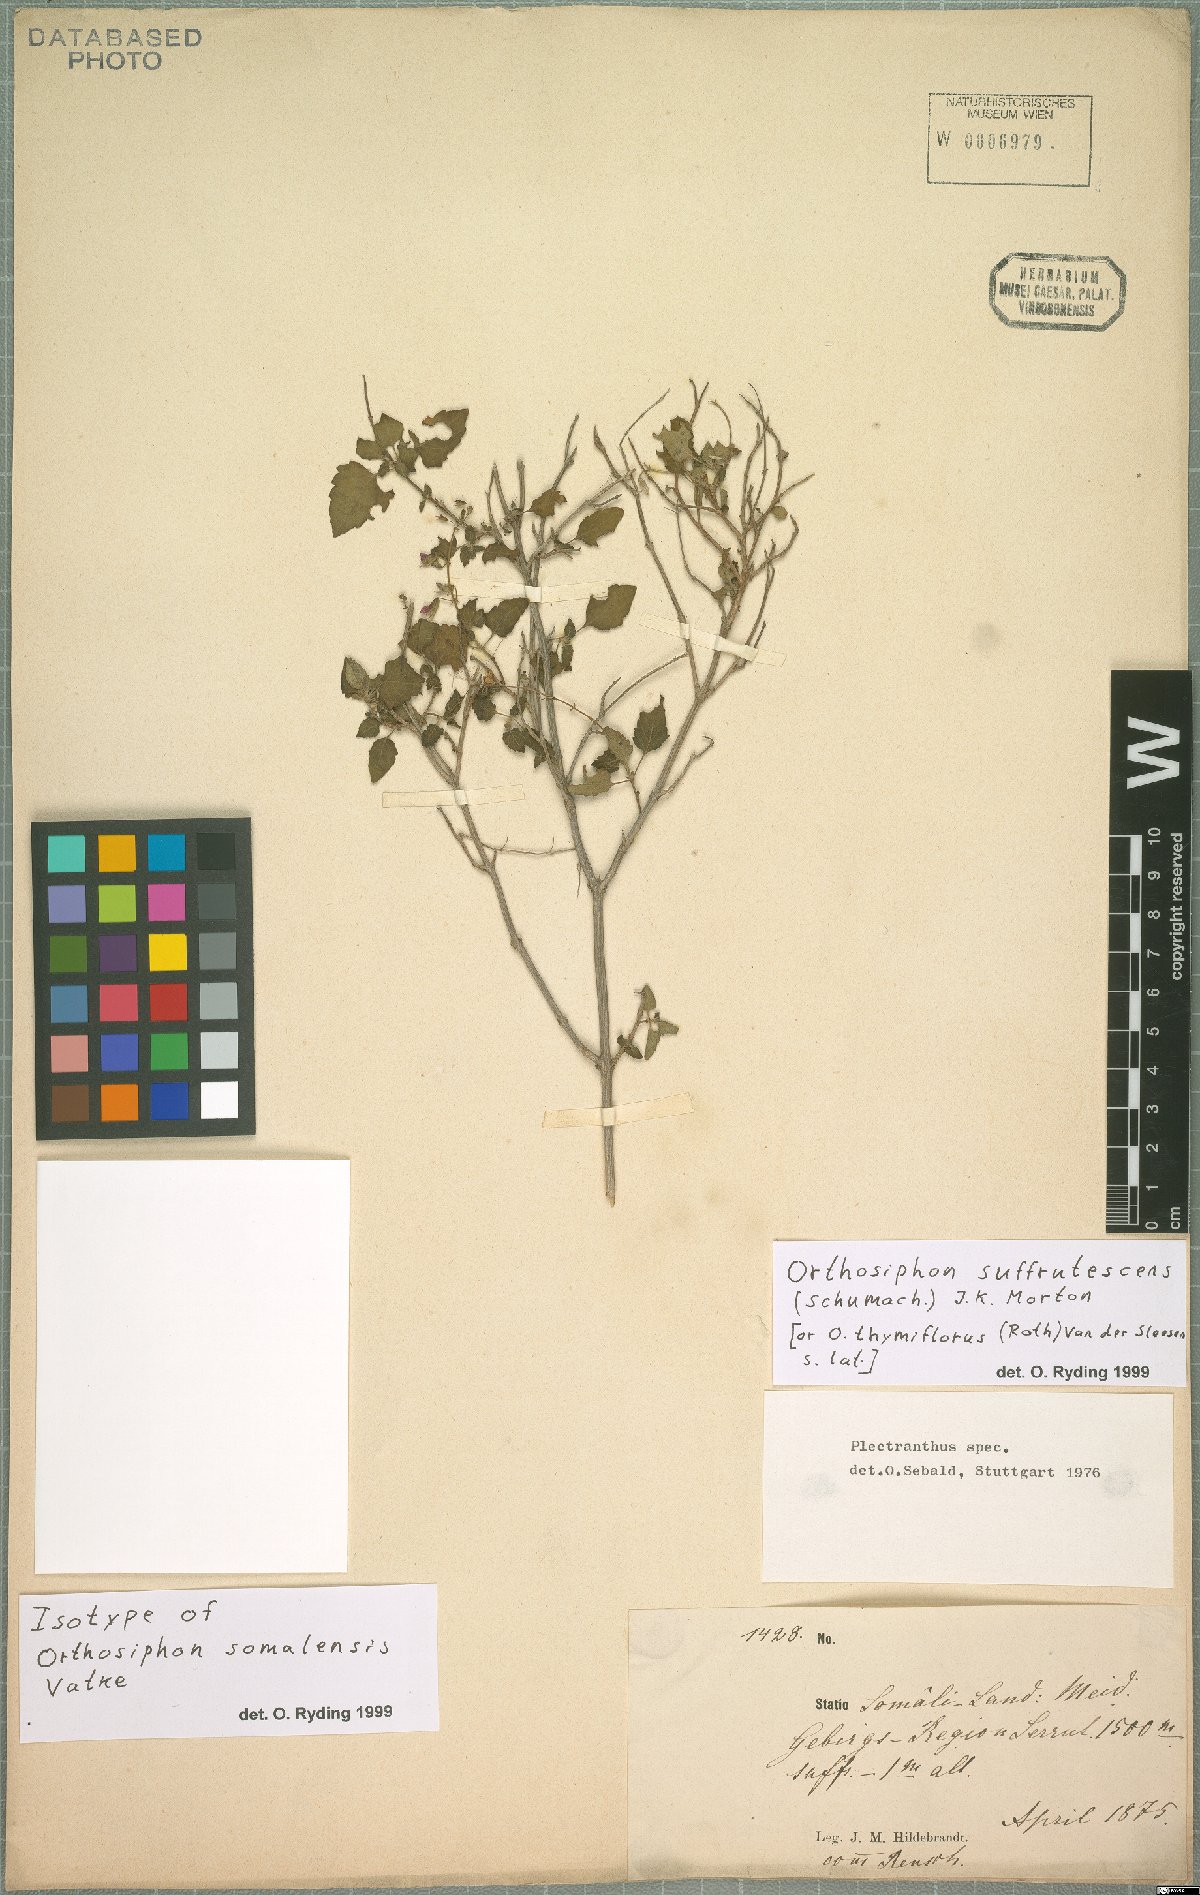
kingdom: Plantae
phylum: Tracheophyta
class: Magnoliopsida
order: Lamiales
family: Lamiaceae
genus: Orthosiphon
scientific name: Orthosiphon thymiflorus
